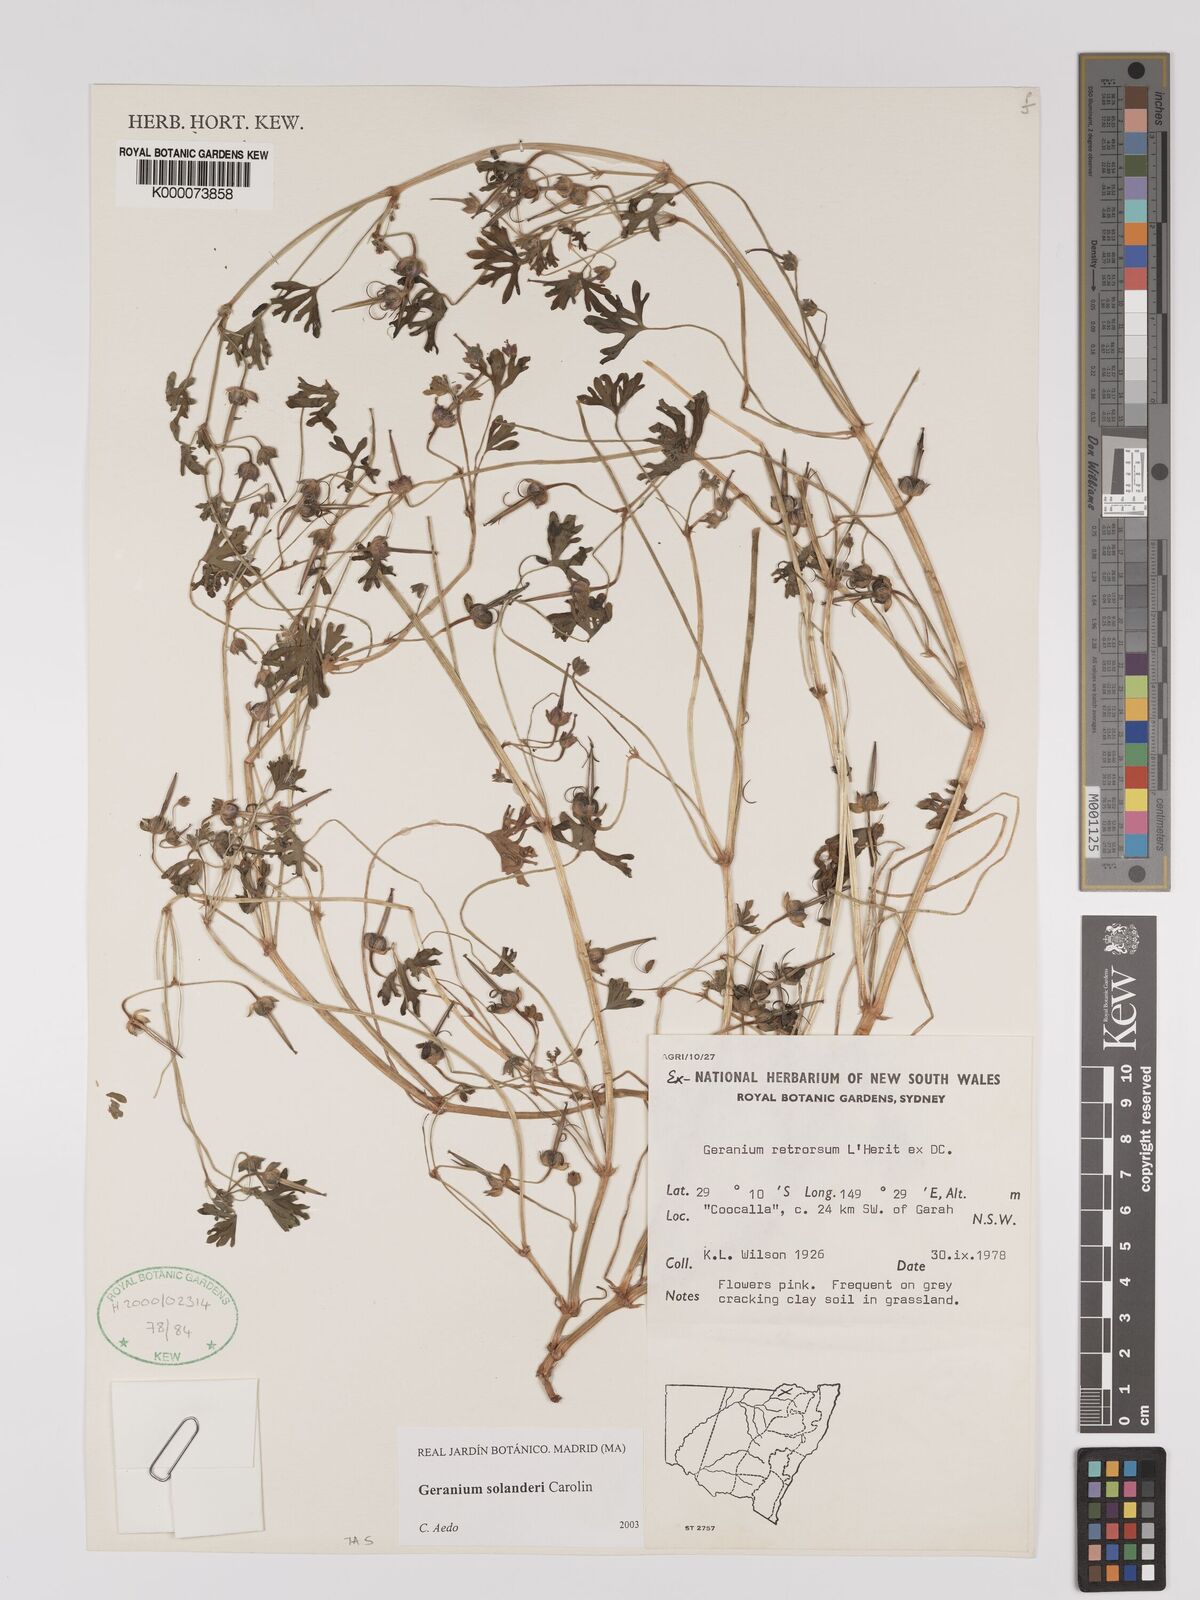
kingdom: Plantae
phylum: Tracheophyta
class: Magnoliopsida
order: Geraniales
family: Geraniaceae
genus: Geranium
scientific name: Geranium solanderi
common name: Solander's geranium
